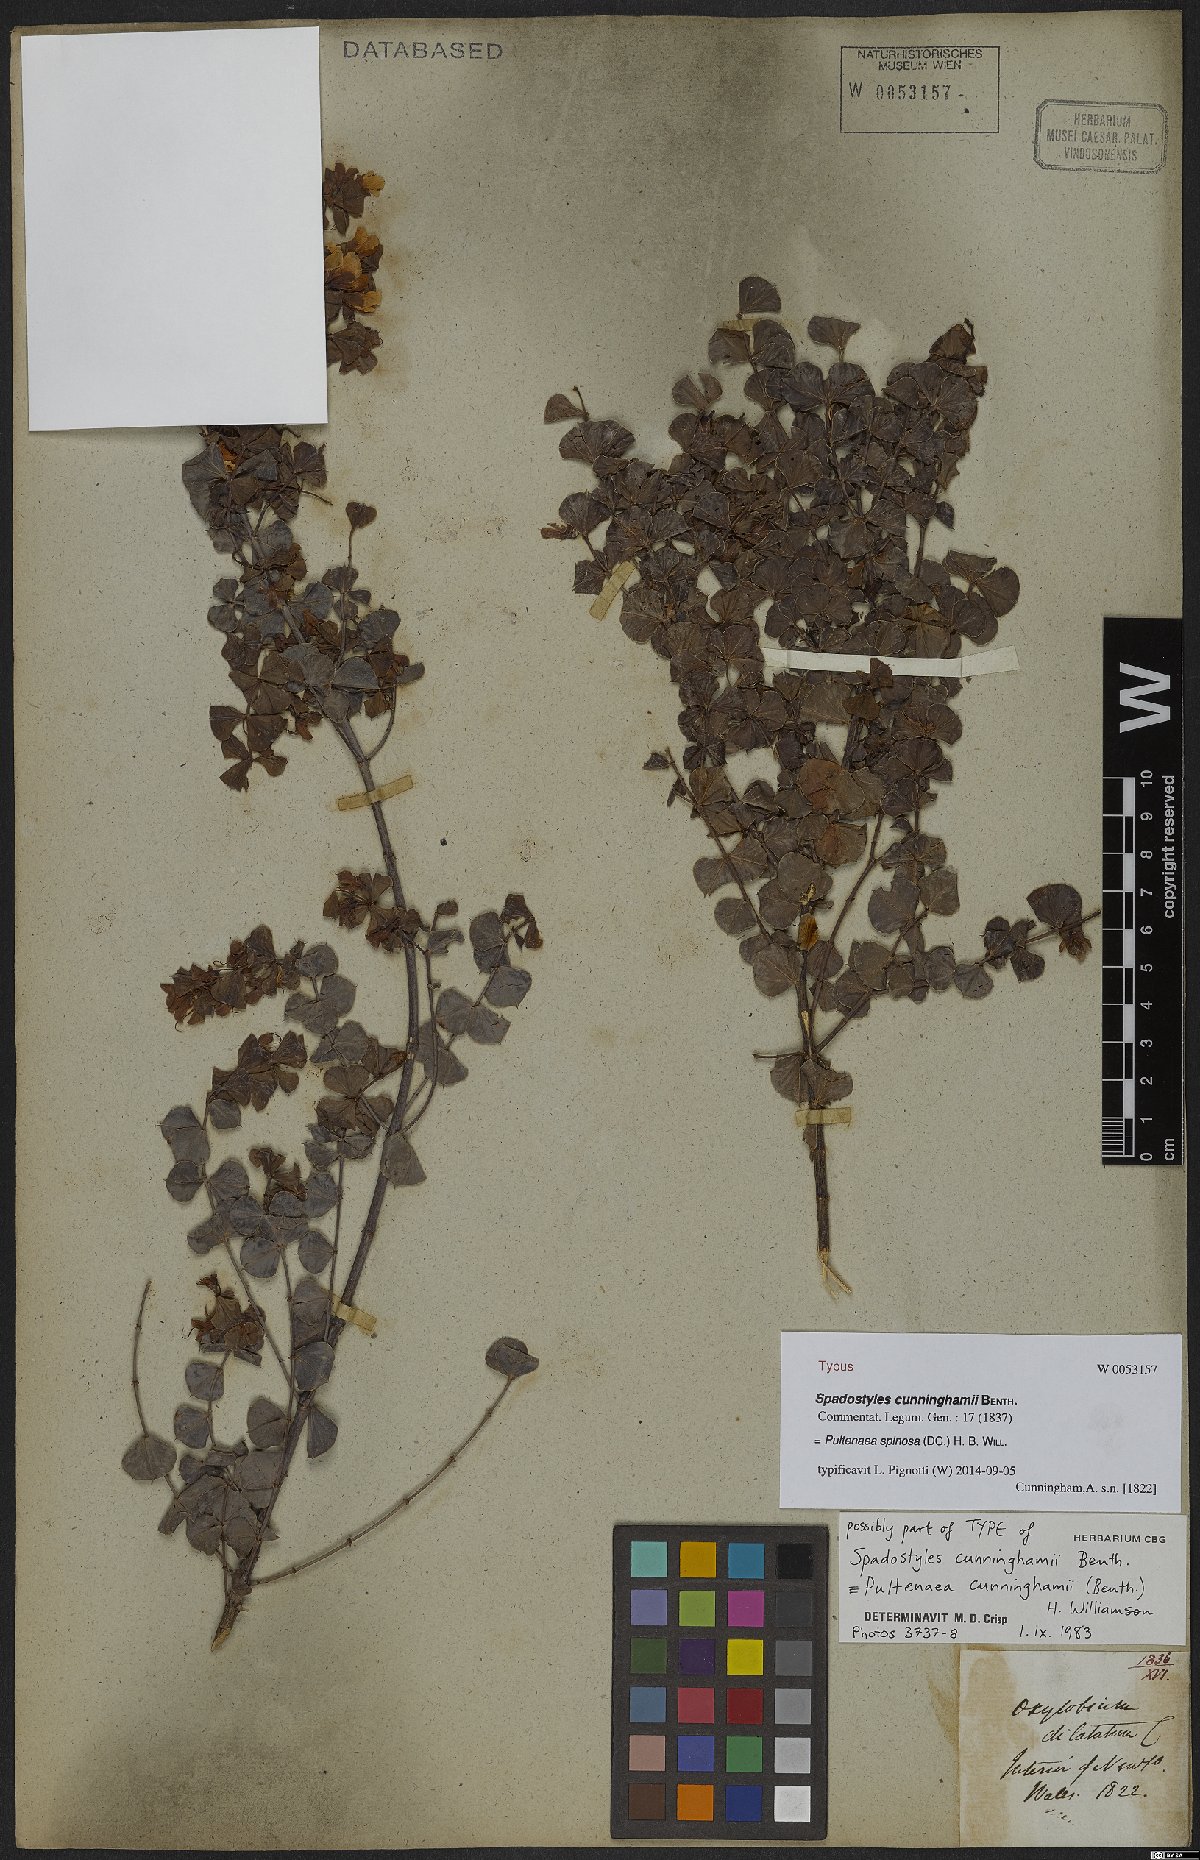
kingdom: Plantae
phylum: Tracheophyta
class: Magnoliopsida
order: Fabales
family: Fabaceae
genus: Pultenaea
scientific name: Pultenaea spinosa
